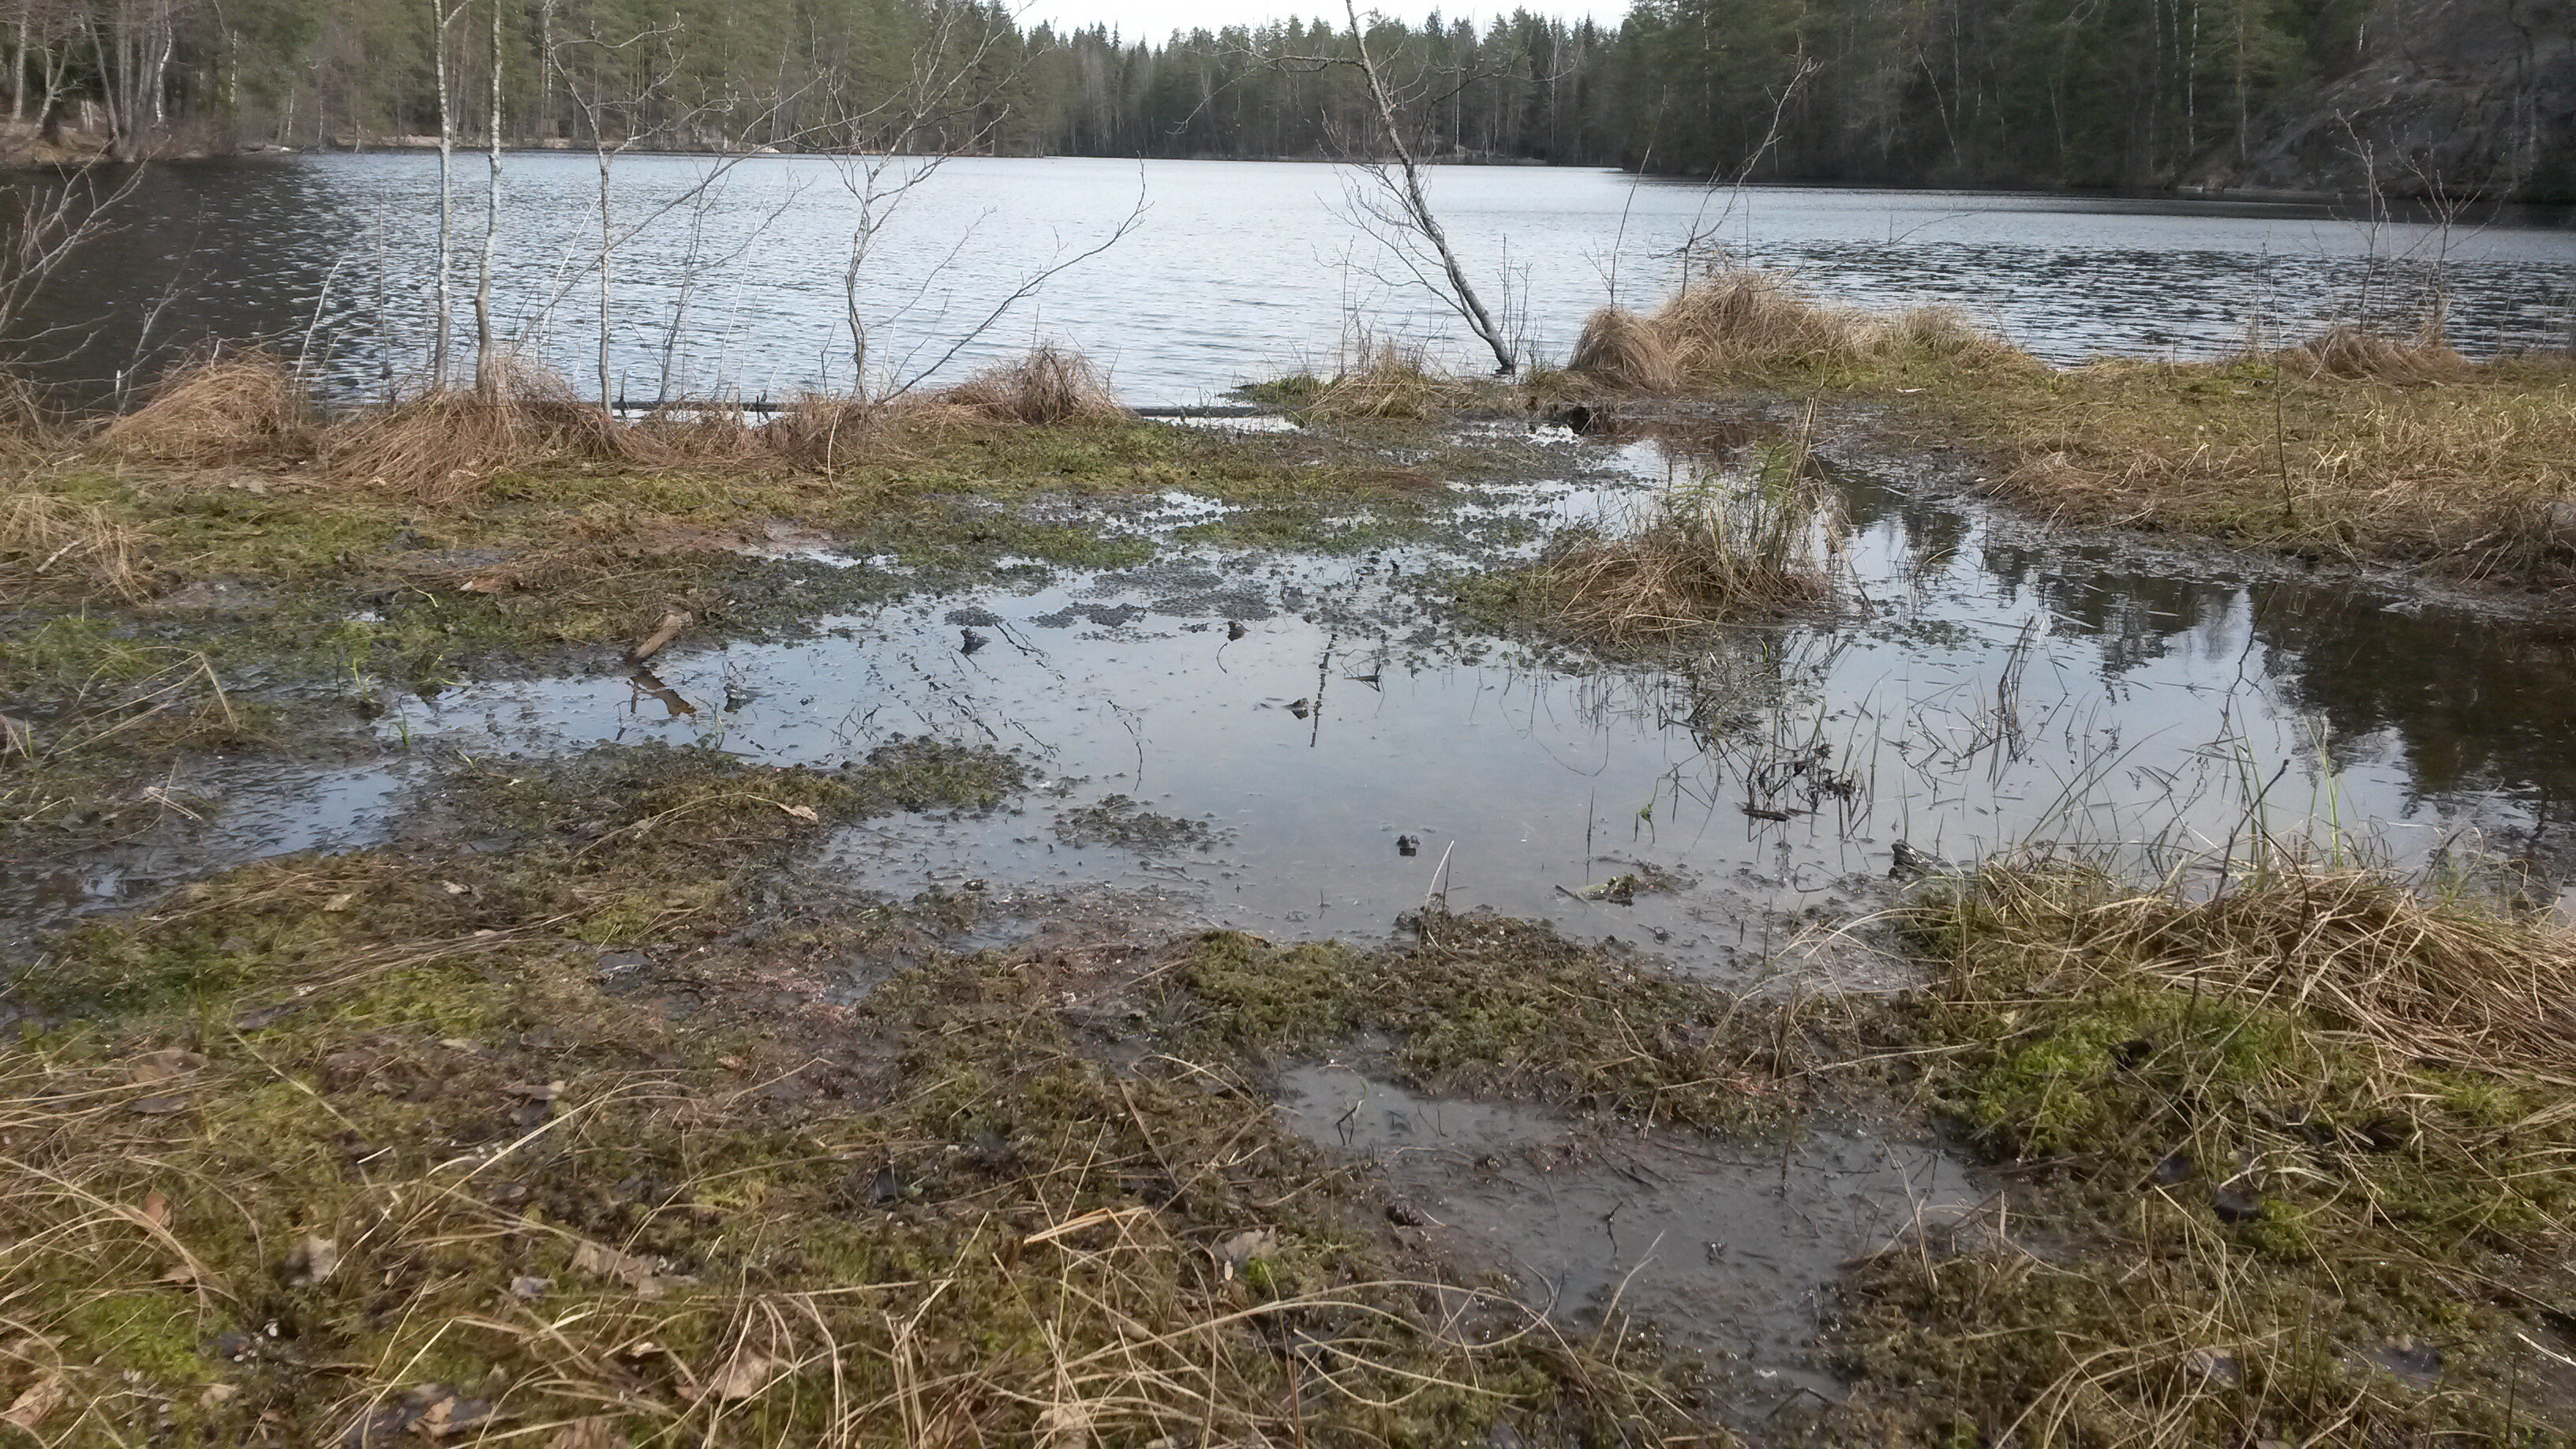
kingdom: Animalia
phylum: Chordata
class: Amphibia
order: Anura
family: Ranidae
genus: Rana
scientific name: Rana temporaria
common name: Common frog
